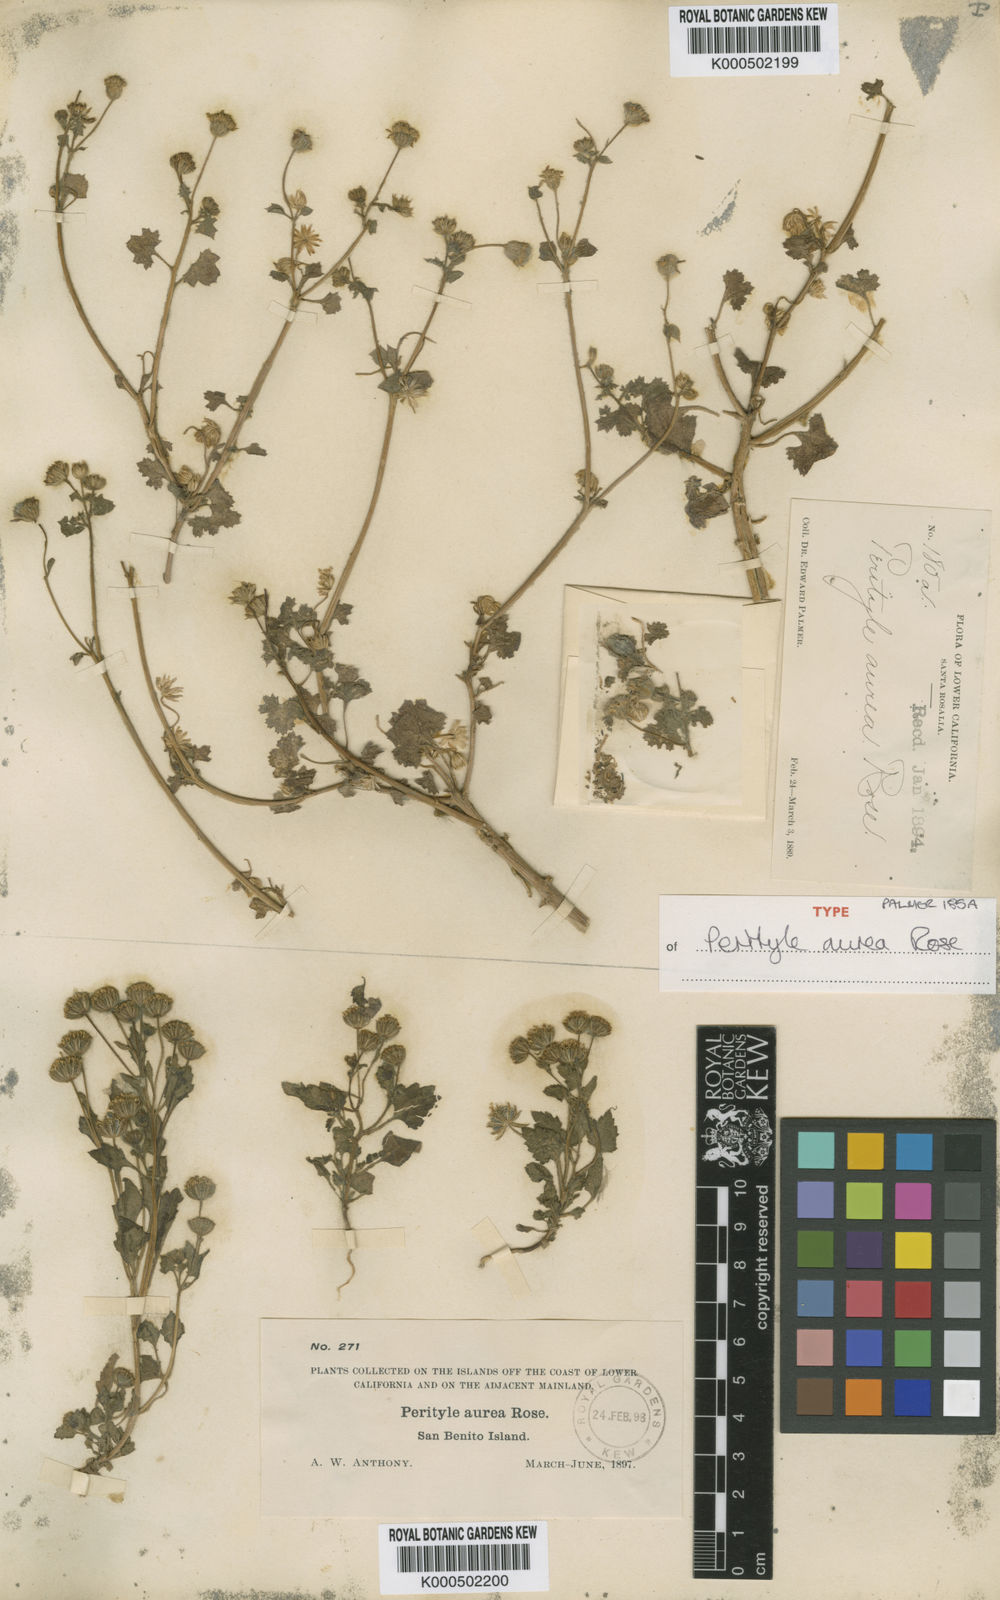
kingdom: Plantae
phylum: Tracheophyta
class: Magnoliopsida
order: Asterales
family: Asteraceae
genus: Perityle
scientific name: Perityle aurea
